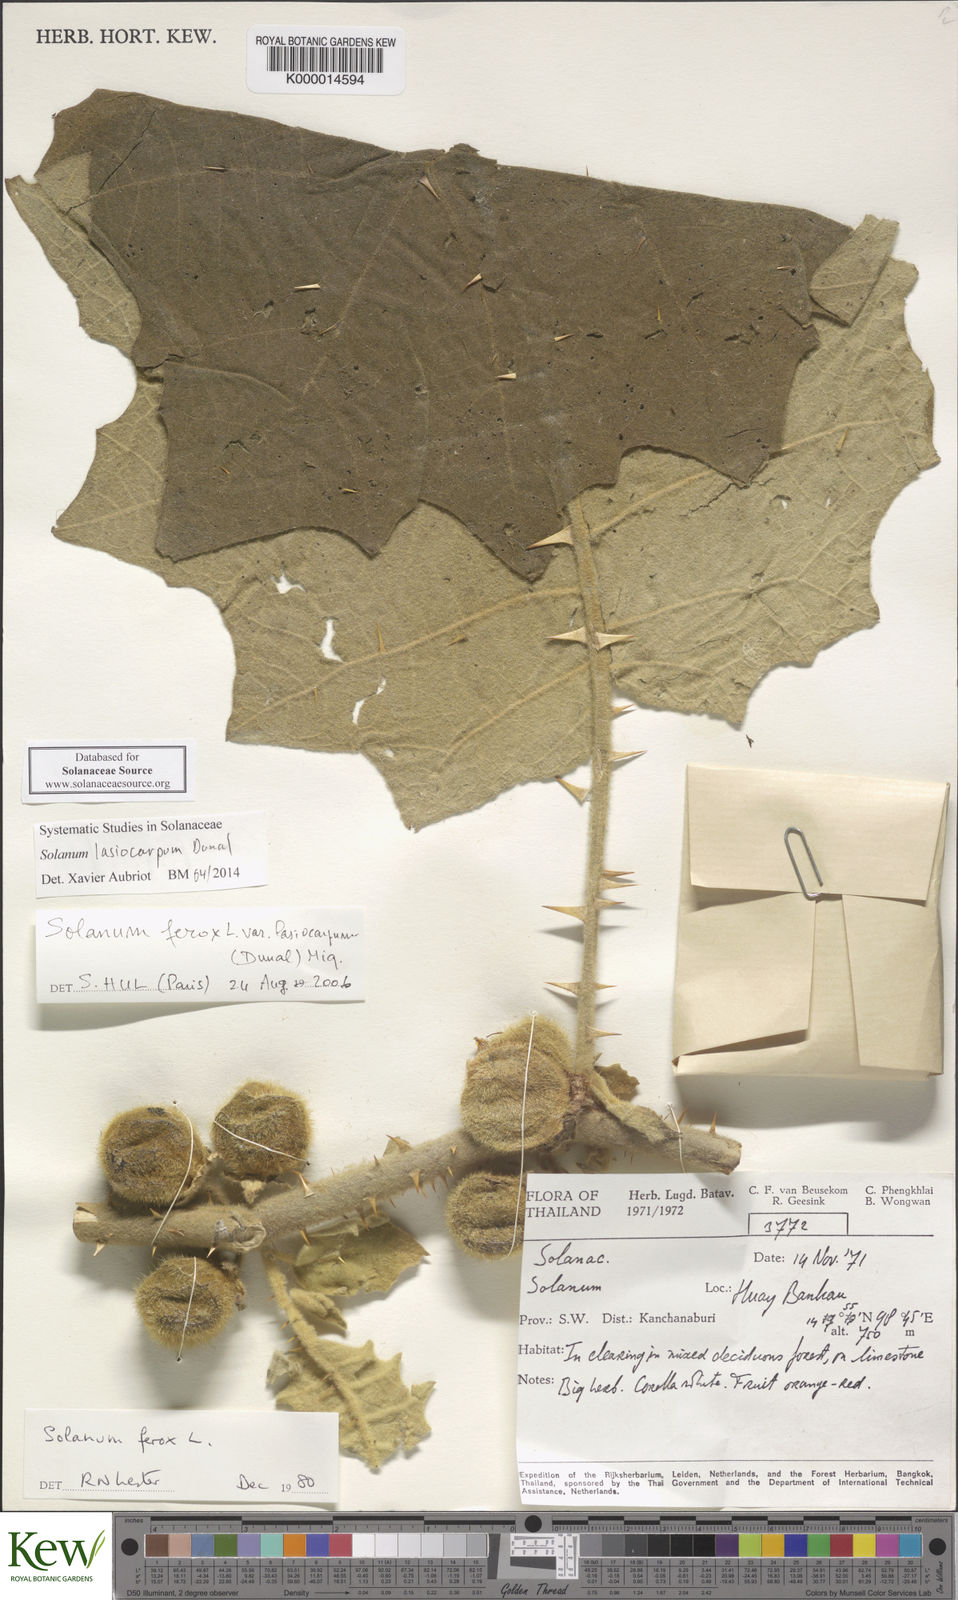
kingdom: Plantae
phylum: Tracheophyta
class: Magnoliopsida
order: Solanales
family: Solanaceae
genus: Solanum
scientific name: Solanum lasiocarpum
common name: Indian nightshade
